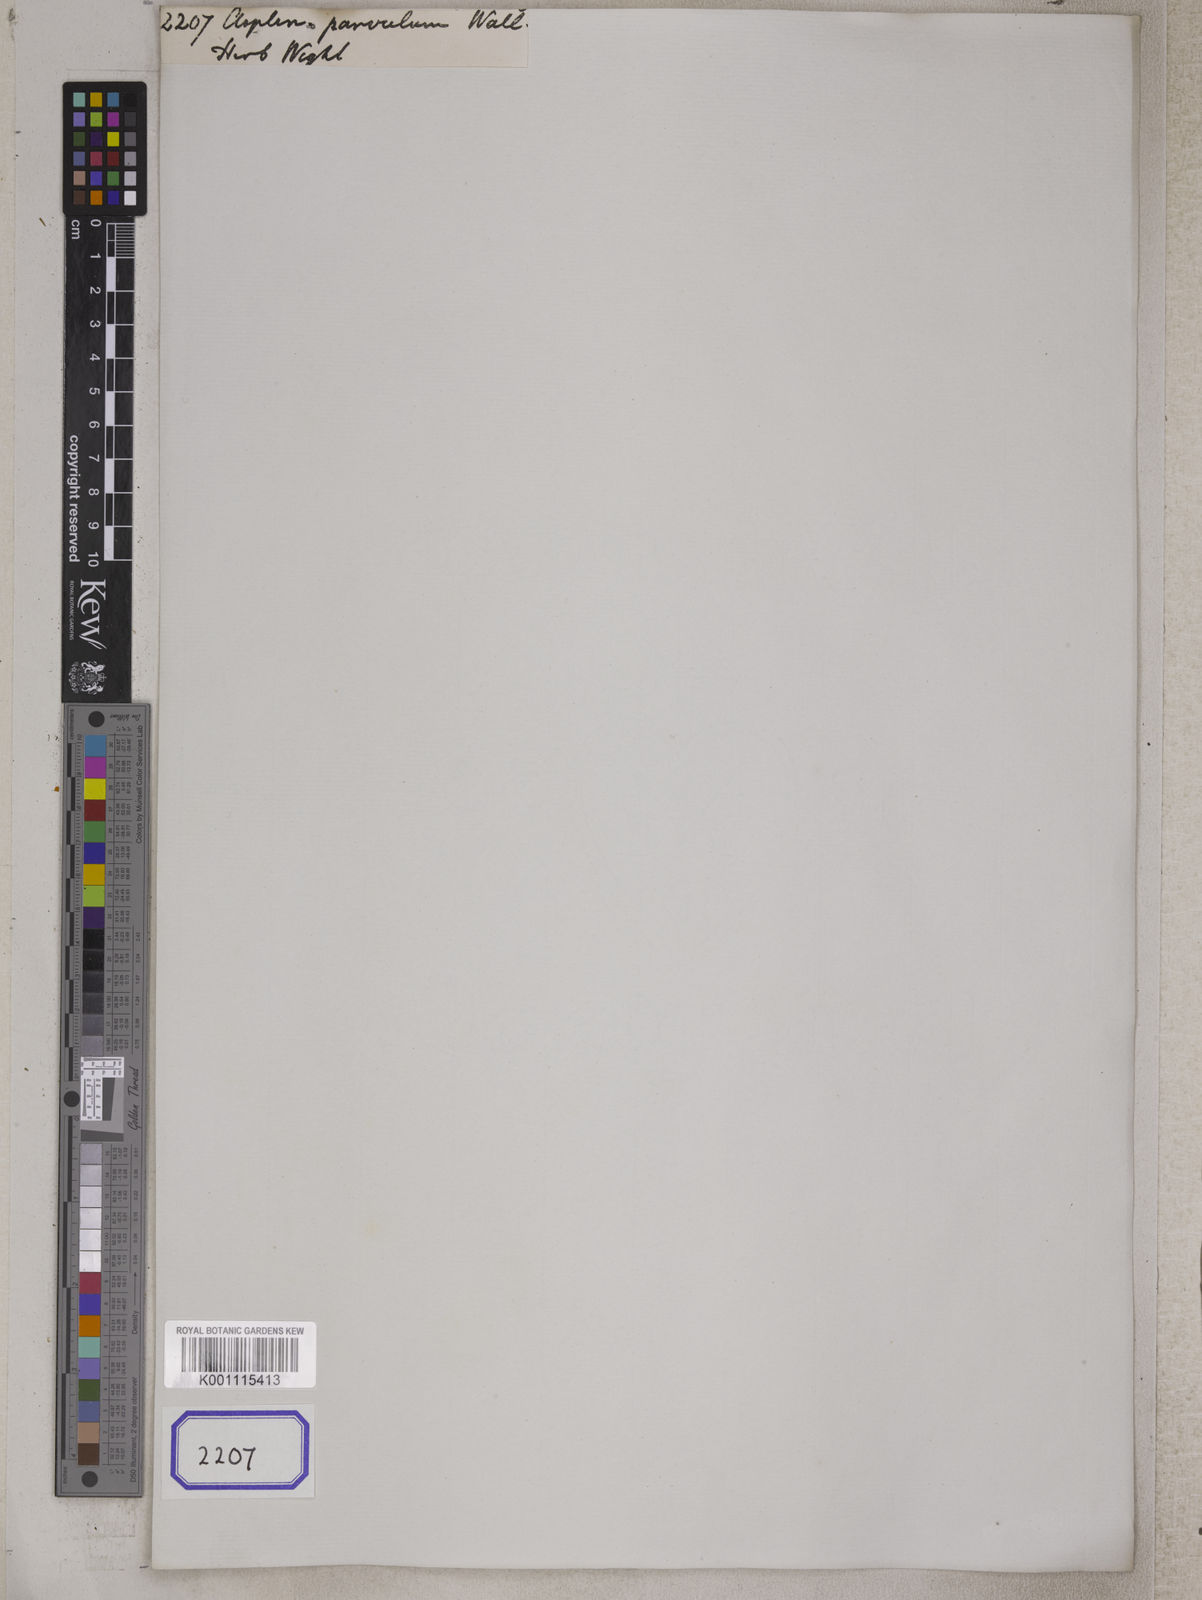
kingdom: Plantae
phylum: Tracheophyta
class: Polypodiopsida
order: Polypodiales
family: Aspleniaceae
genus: Asplenium
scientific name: Asplenium laciniatum
